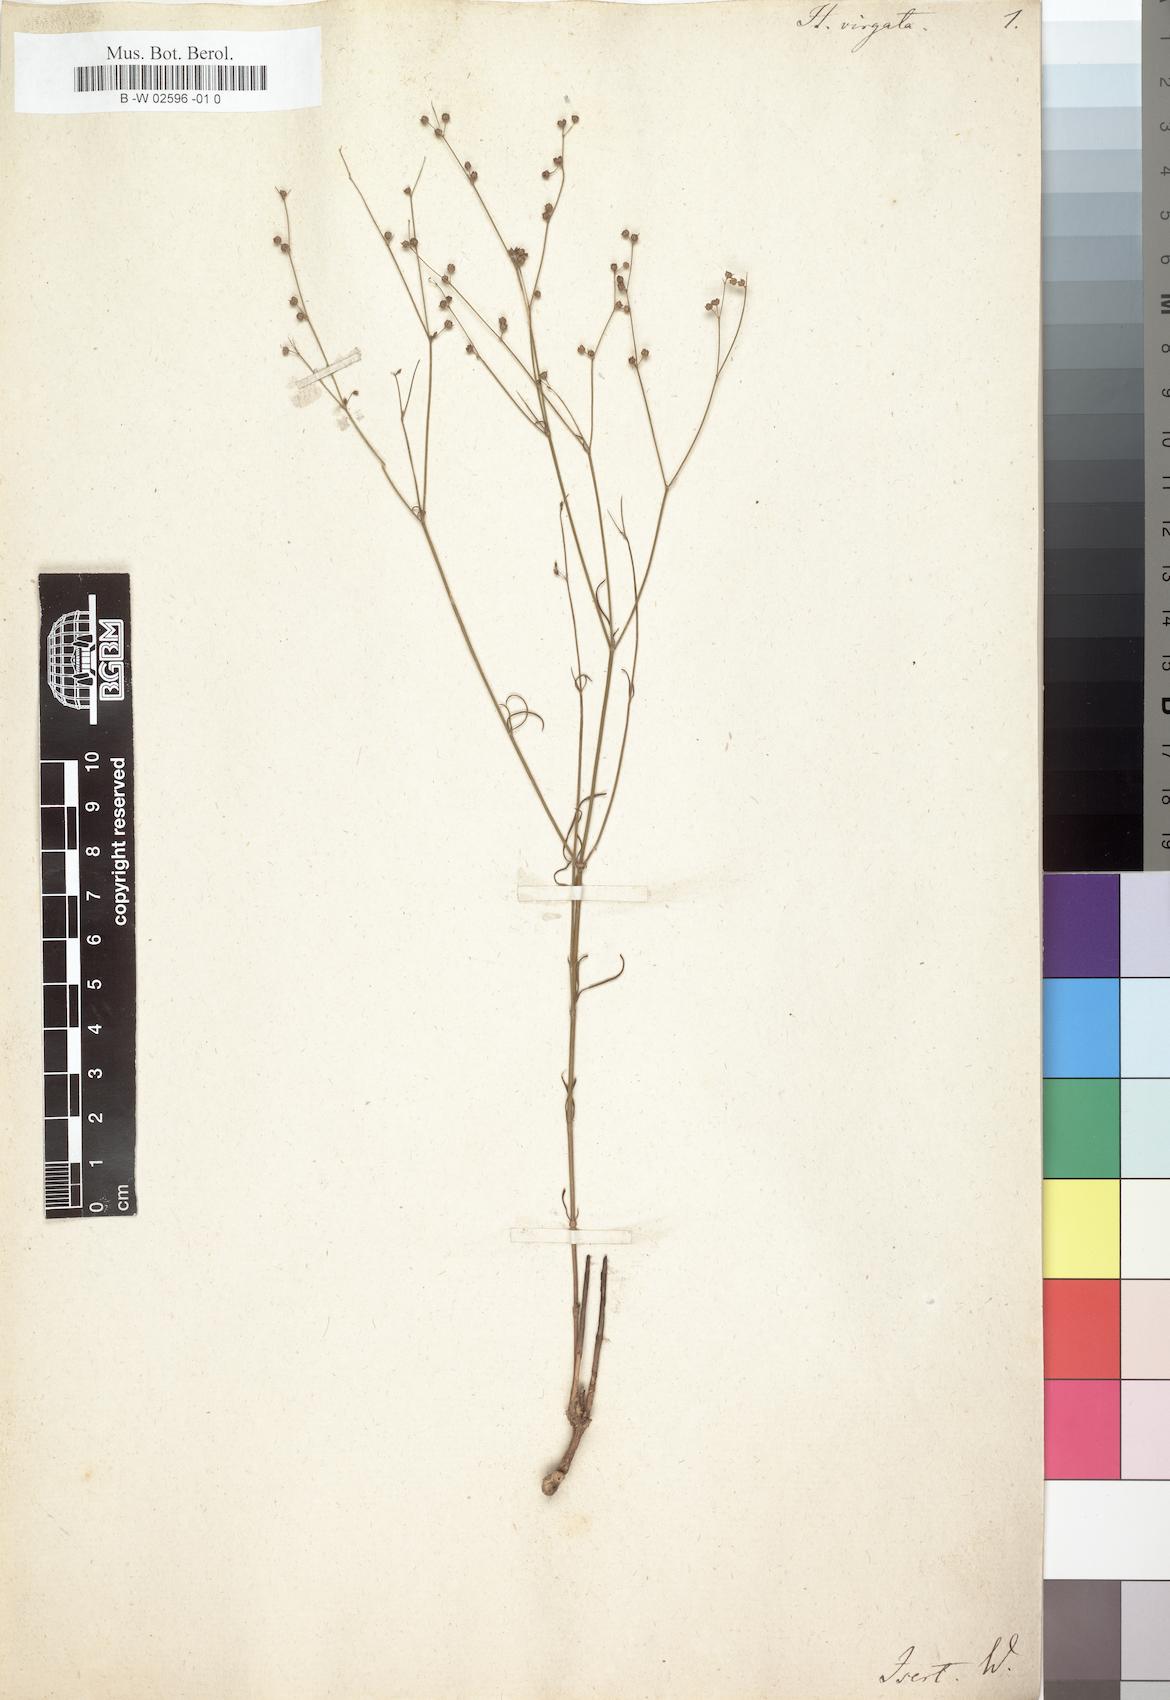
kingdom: Plantae
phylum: Tracheophyta
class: Magnoliopsida
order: Gentianales
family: Rubiaceae
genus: Cordylostigma
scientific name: Cordylostigma virgatum
